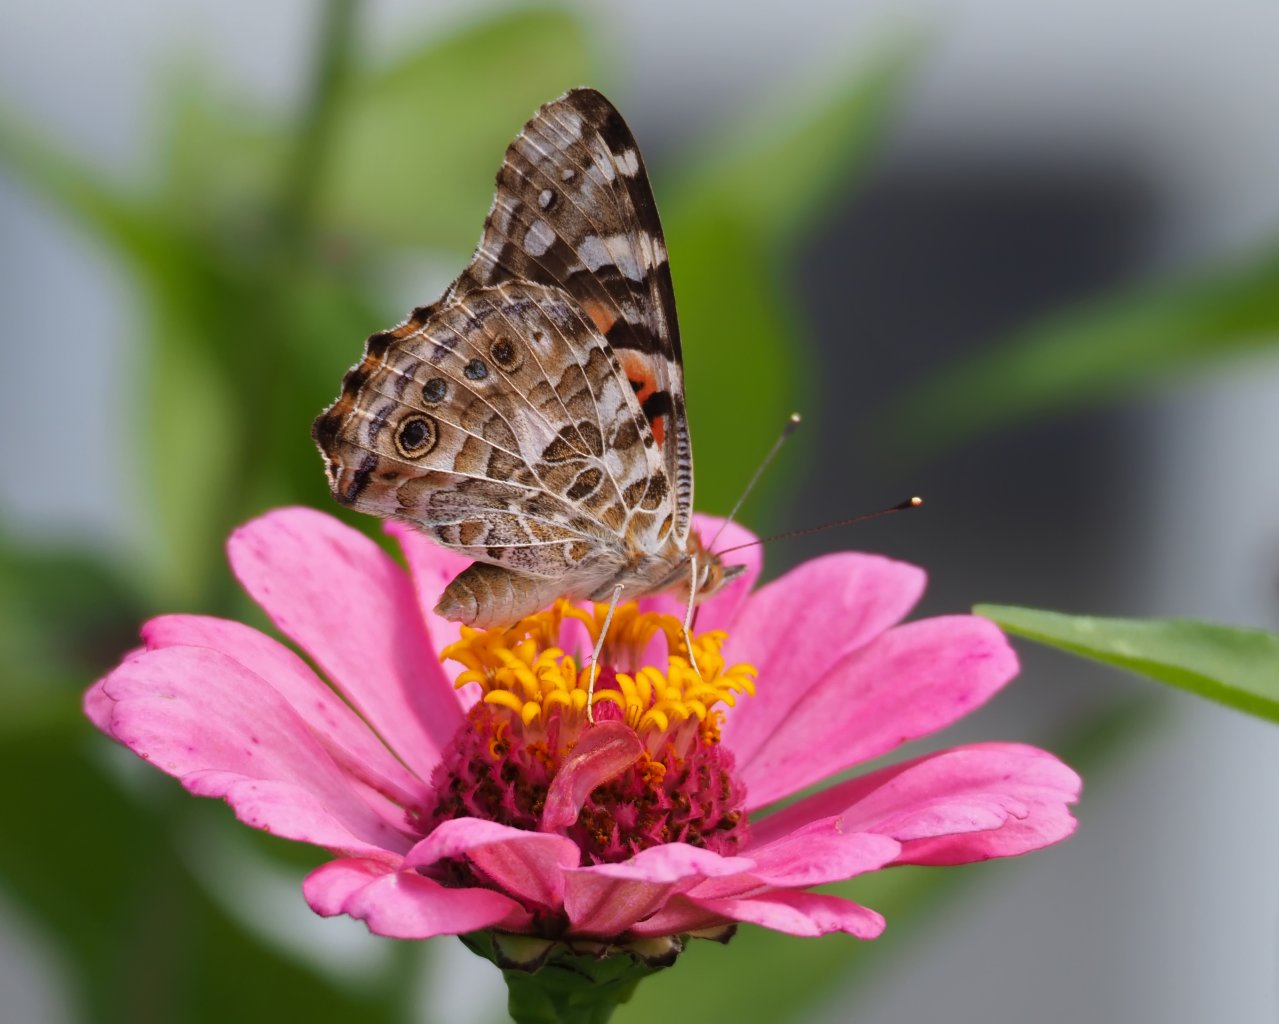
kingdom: Animalia
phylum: Arthropoda
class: Insecta
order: Lepidoptera
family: Nymphalidae
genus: Vanessa
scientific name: Vanessa cardui
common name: Painted Lady
